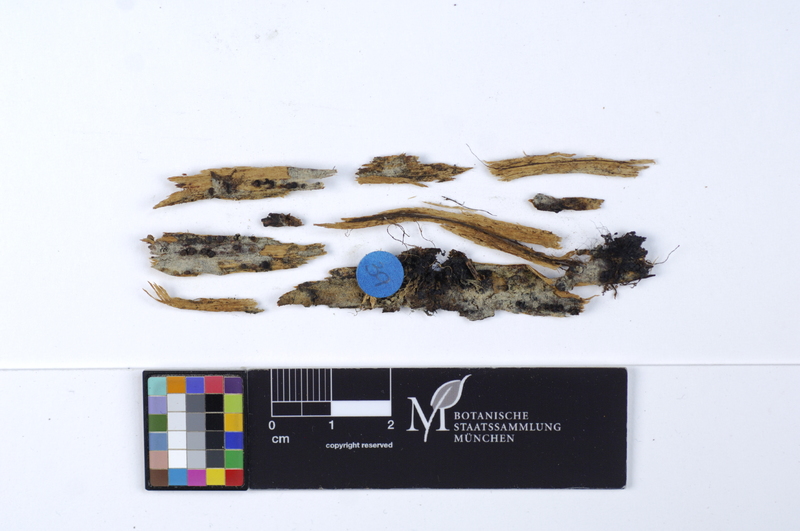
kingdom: Fungi
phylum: Basidiomycota
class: Agaricomycetes
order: Cantharellales
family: Botryobasidiaceae
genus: Botryobasidium
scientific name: Botryobasidium vagum
